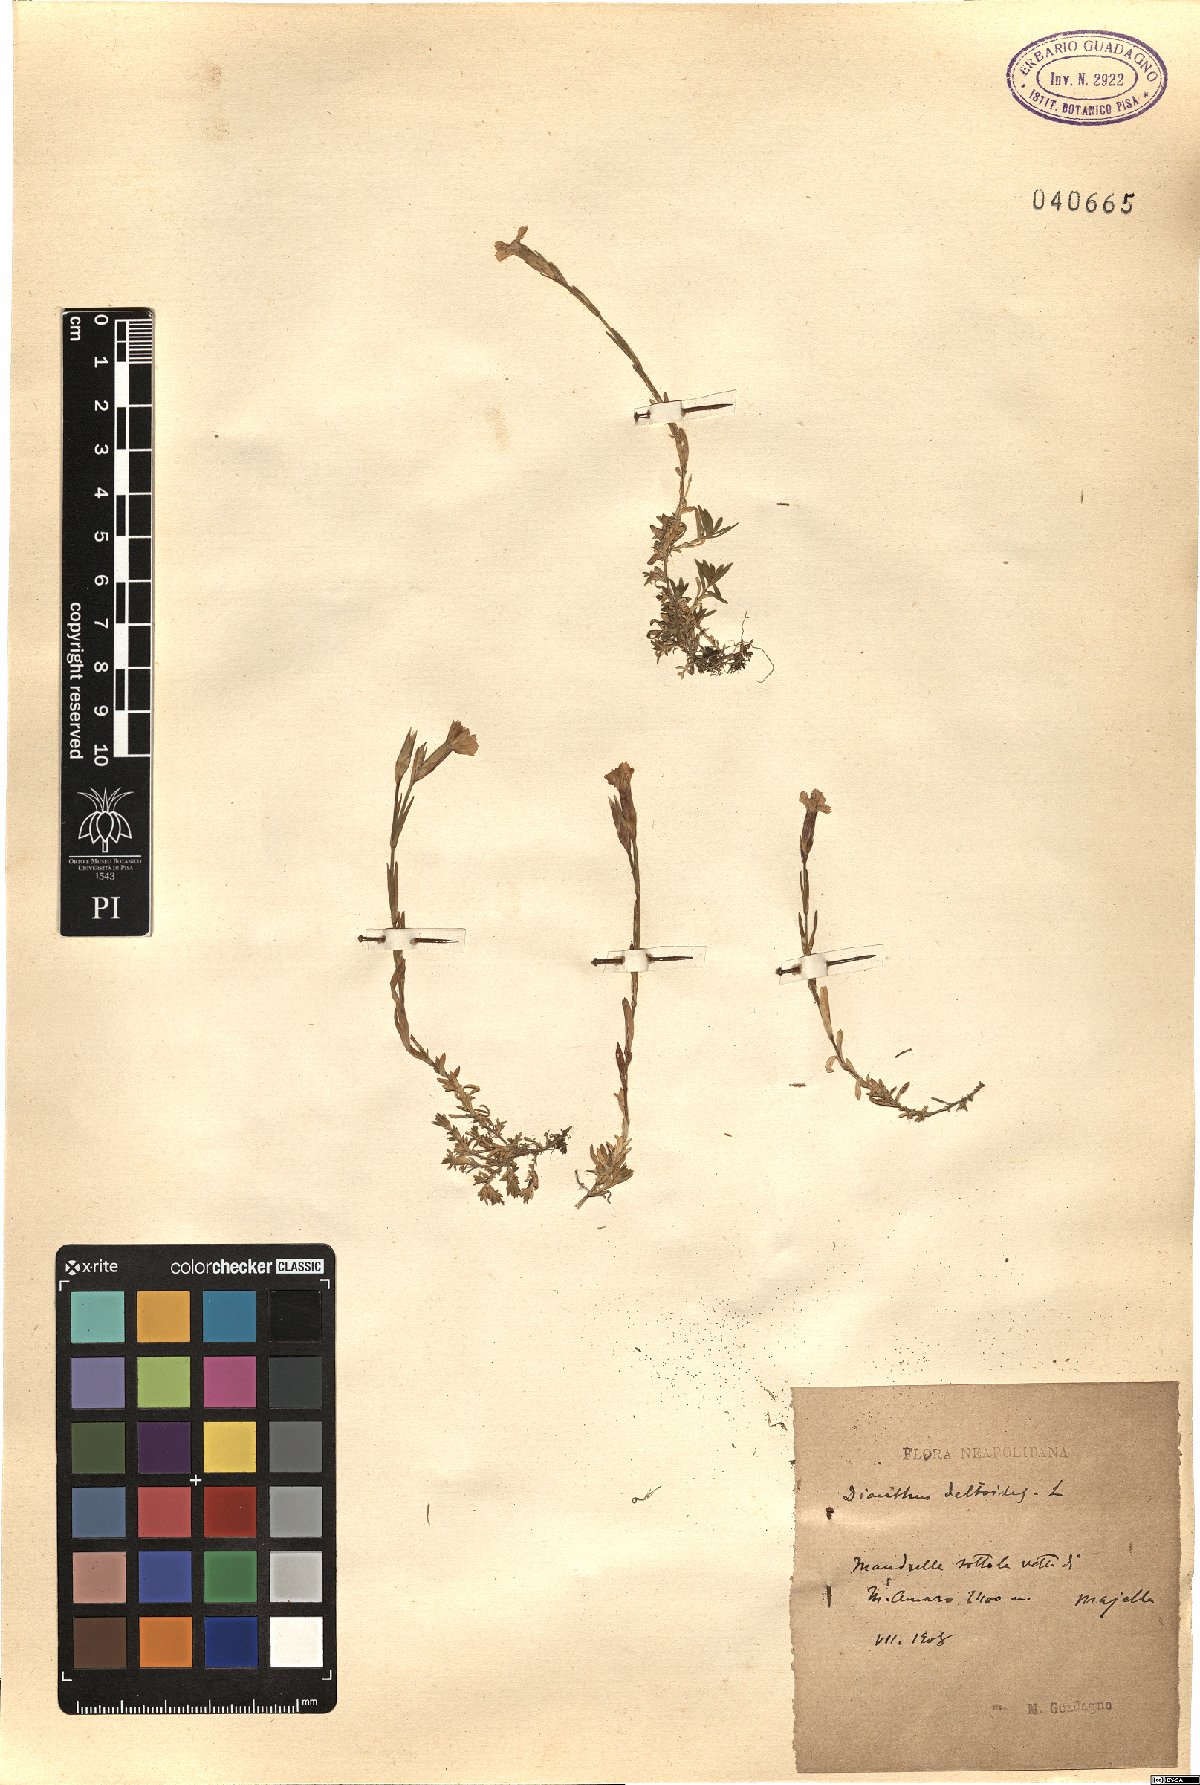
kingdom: Plantae
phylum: Tracheophyta
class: Magnoliopsida
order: Caryophyllales
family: Caryophyllaceae
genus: Dianthus
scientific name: Dianthus deltoides
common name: Maiden pink
